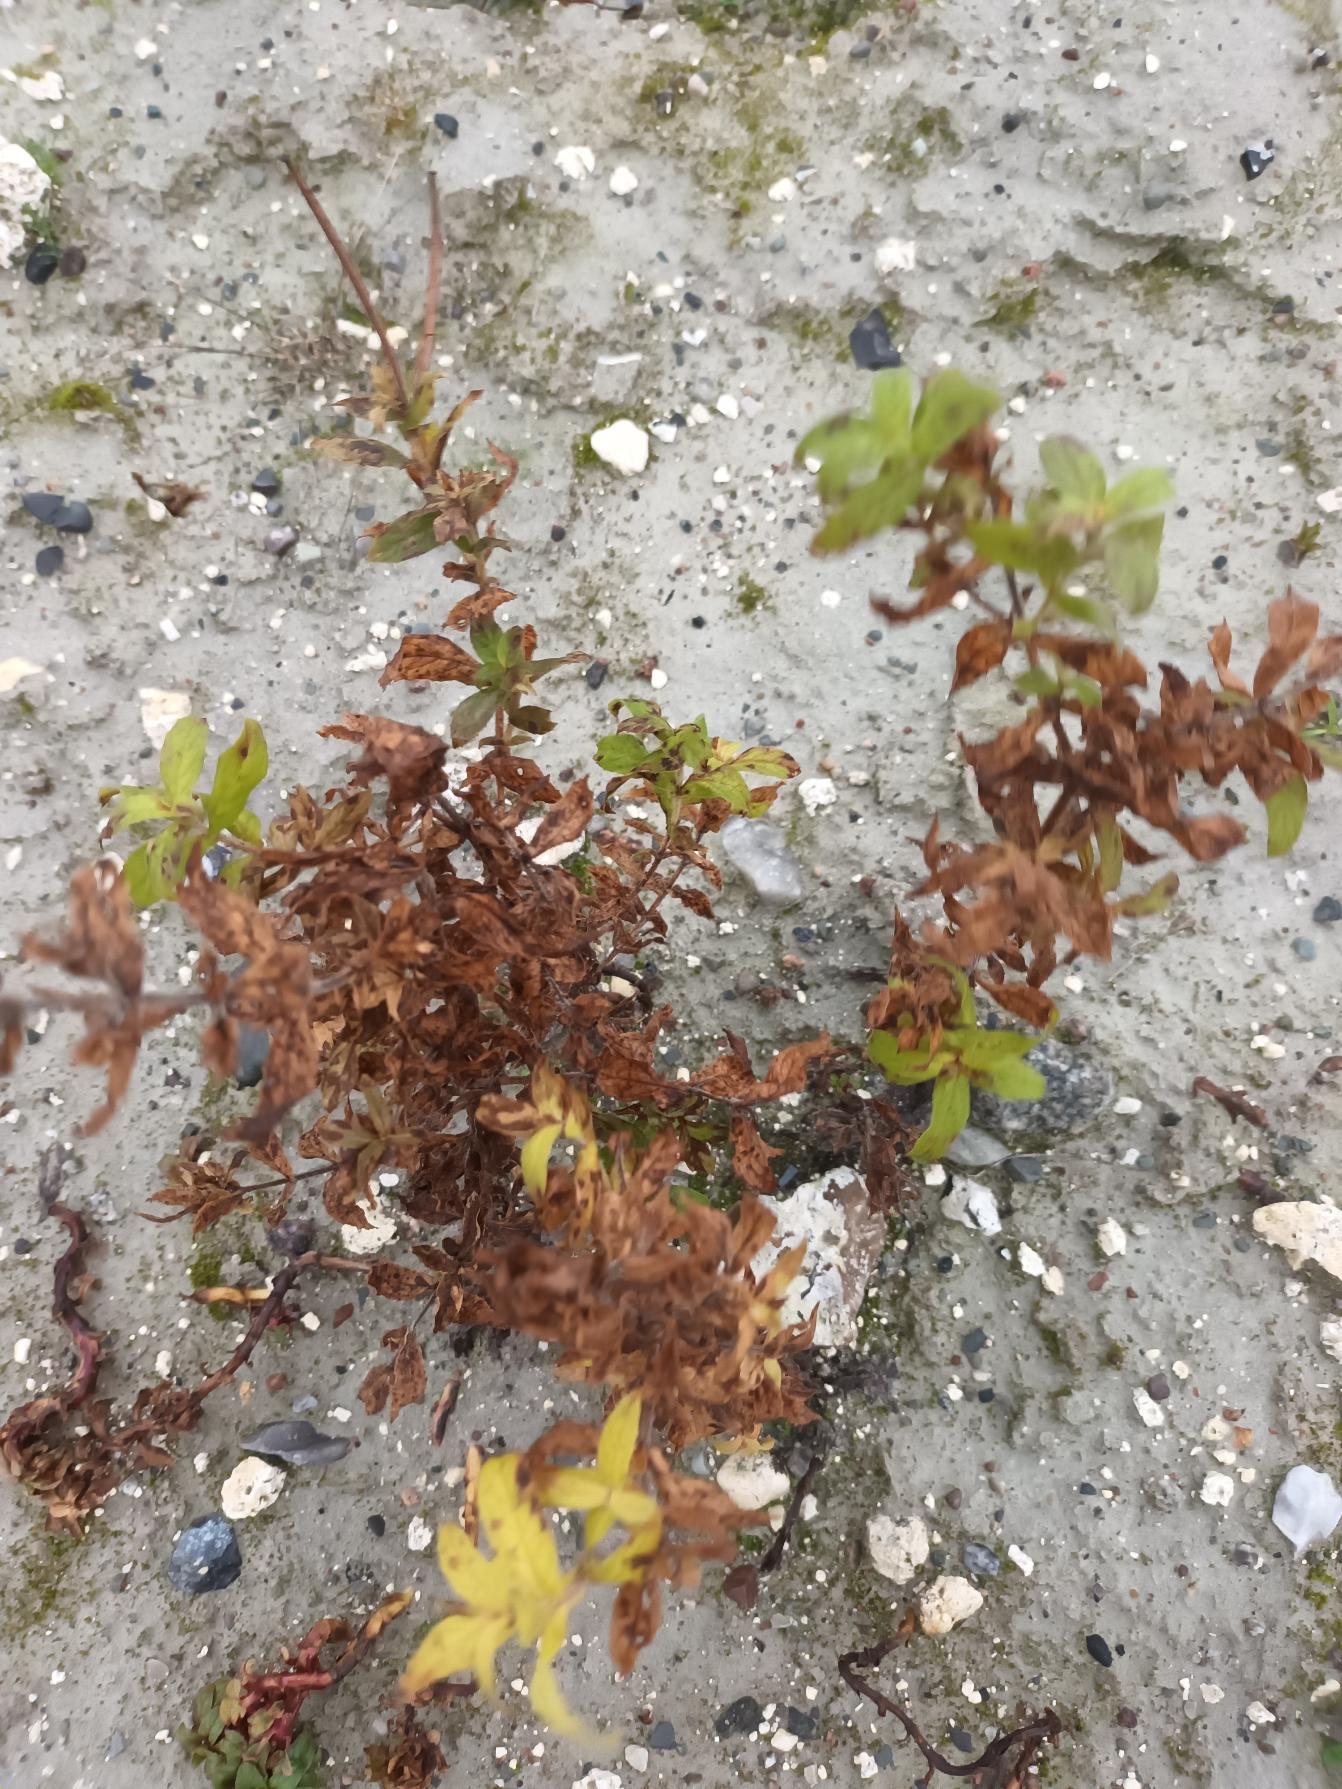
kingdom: Plantae
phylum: Tracheophyta
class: Magnoliopsida
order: Myrtales
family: Onagraceae
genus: Epilobium
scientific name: Epilobium hirsutum
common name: Lådden dueurt
